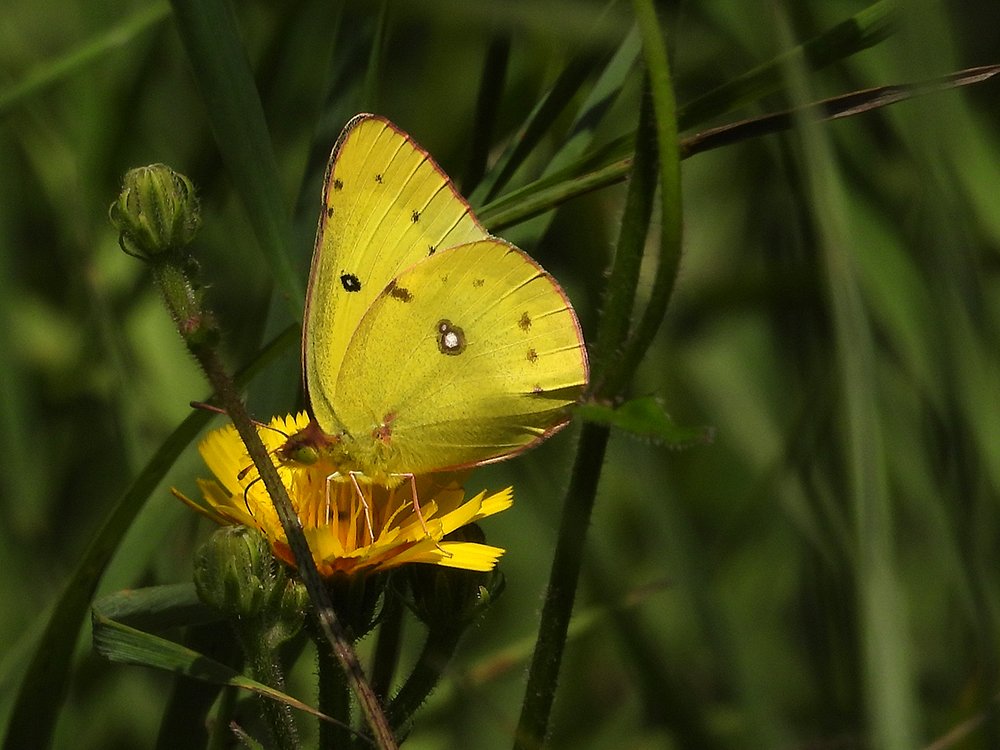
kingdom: Animalia
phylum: Arthropoda
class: Insecta
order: Lepidoptera
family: Pieridae
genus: Colias
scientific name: Colias philodice
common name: Clouded Sulphur
